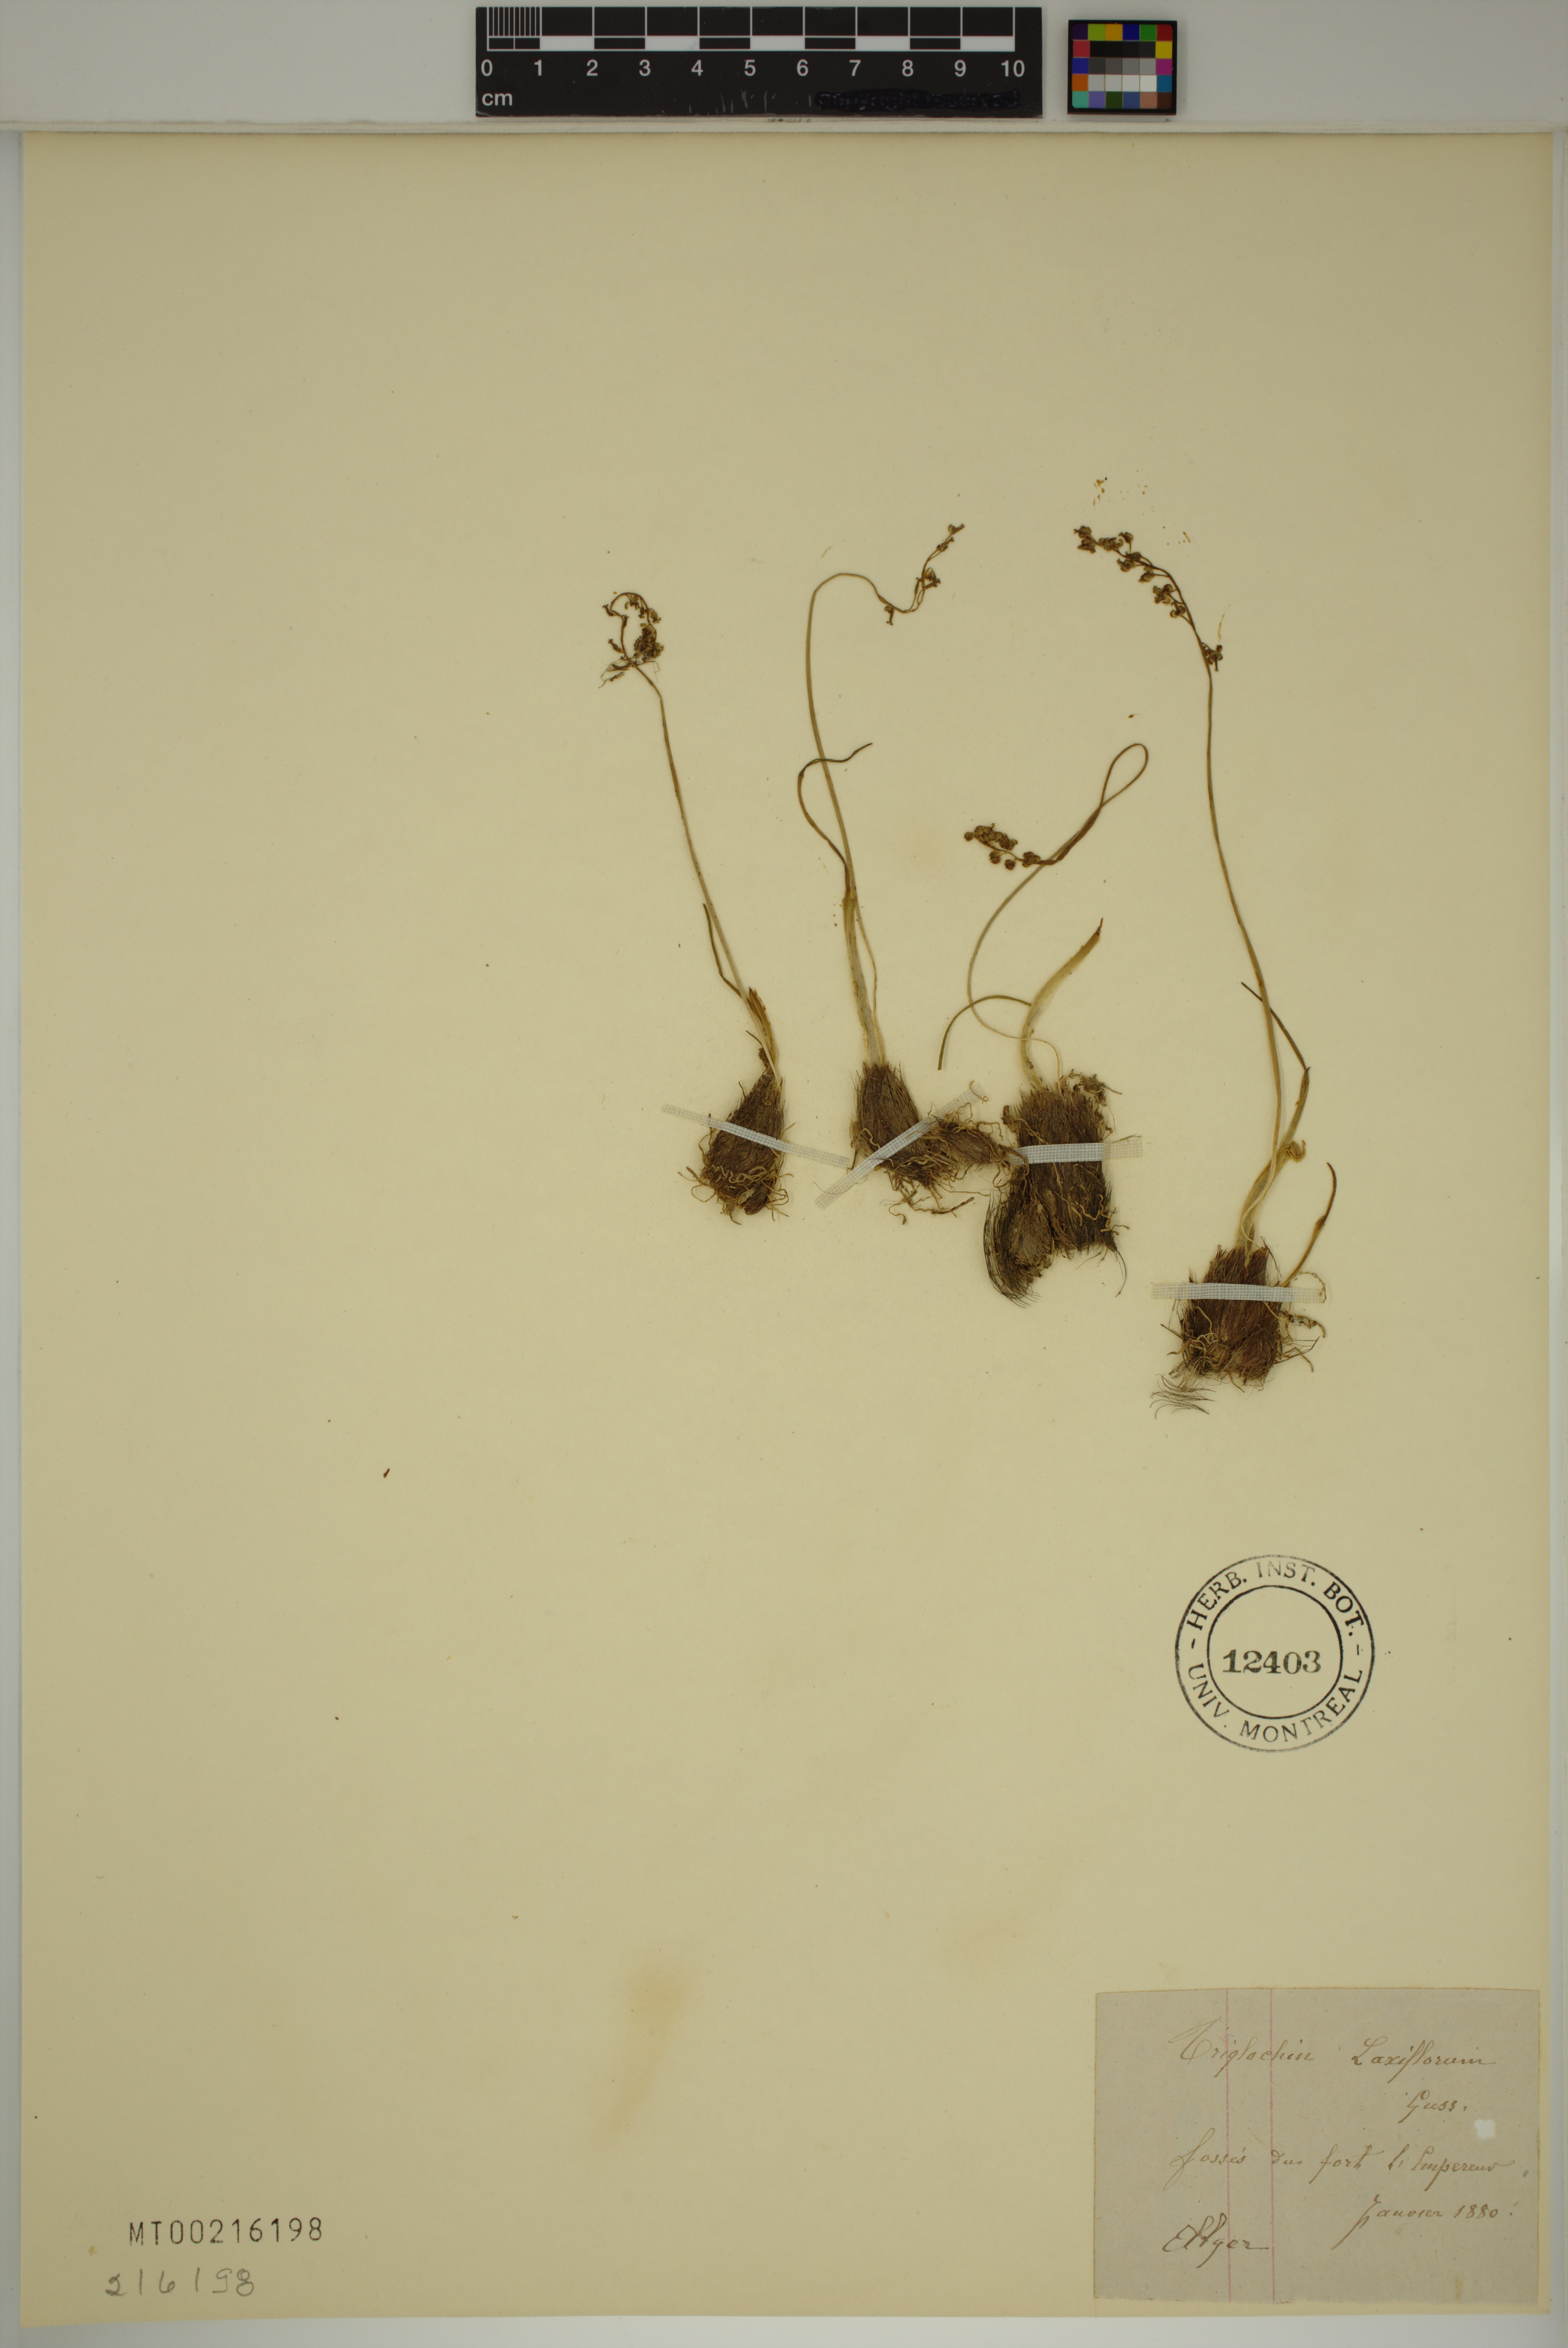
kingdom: Plantae
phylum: Tracheophyta
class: Liliopsida
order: Alismatales
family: Juncaginaceae
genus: Triglochin
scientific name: Triglochin laxiflora
